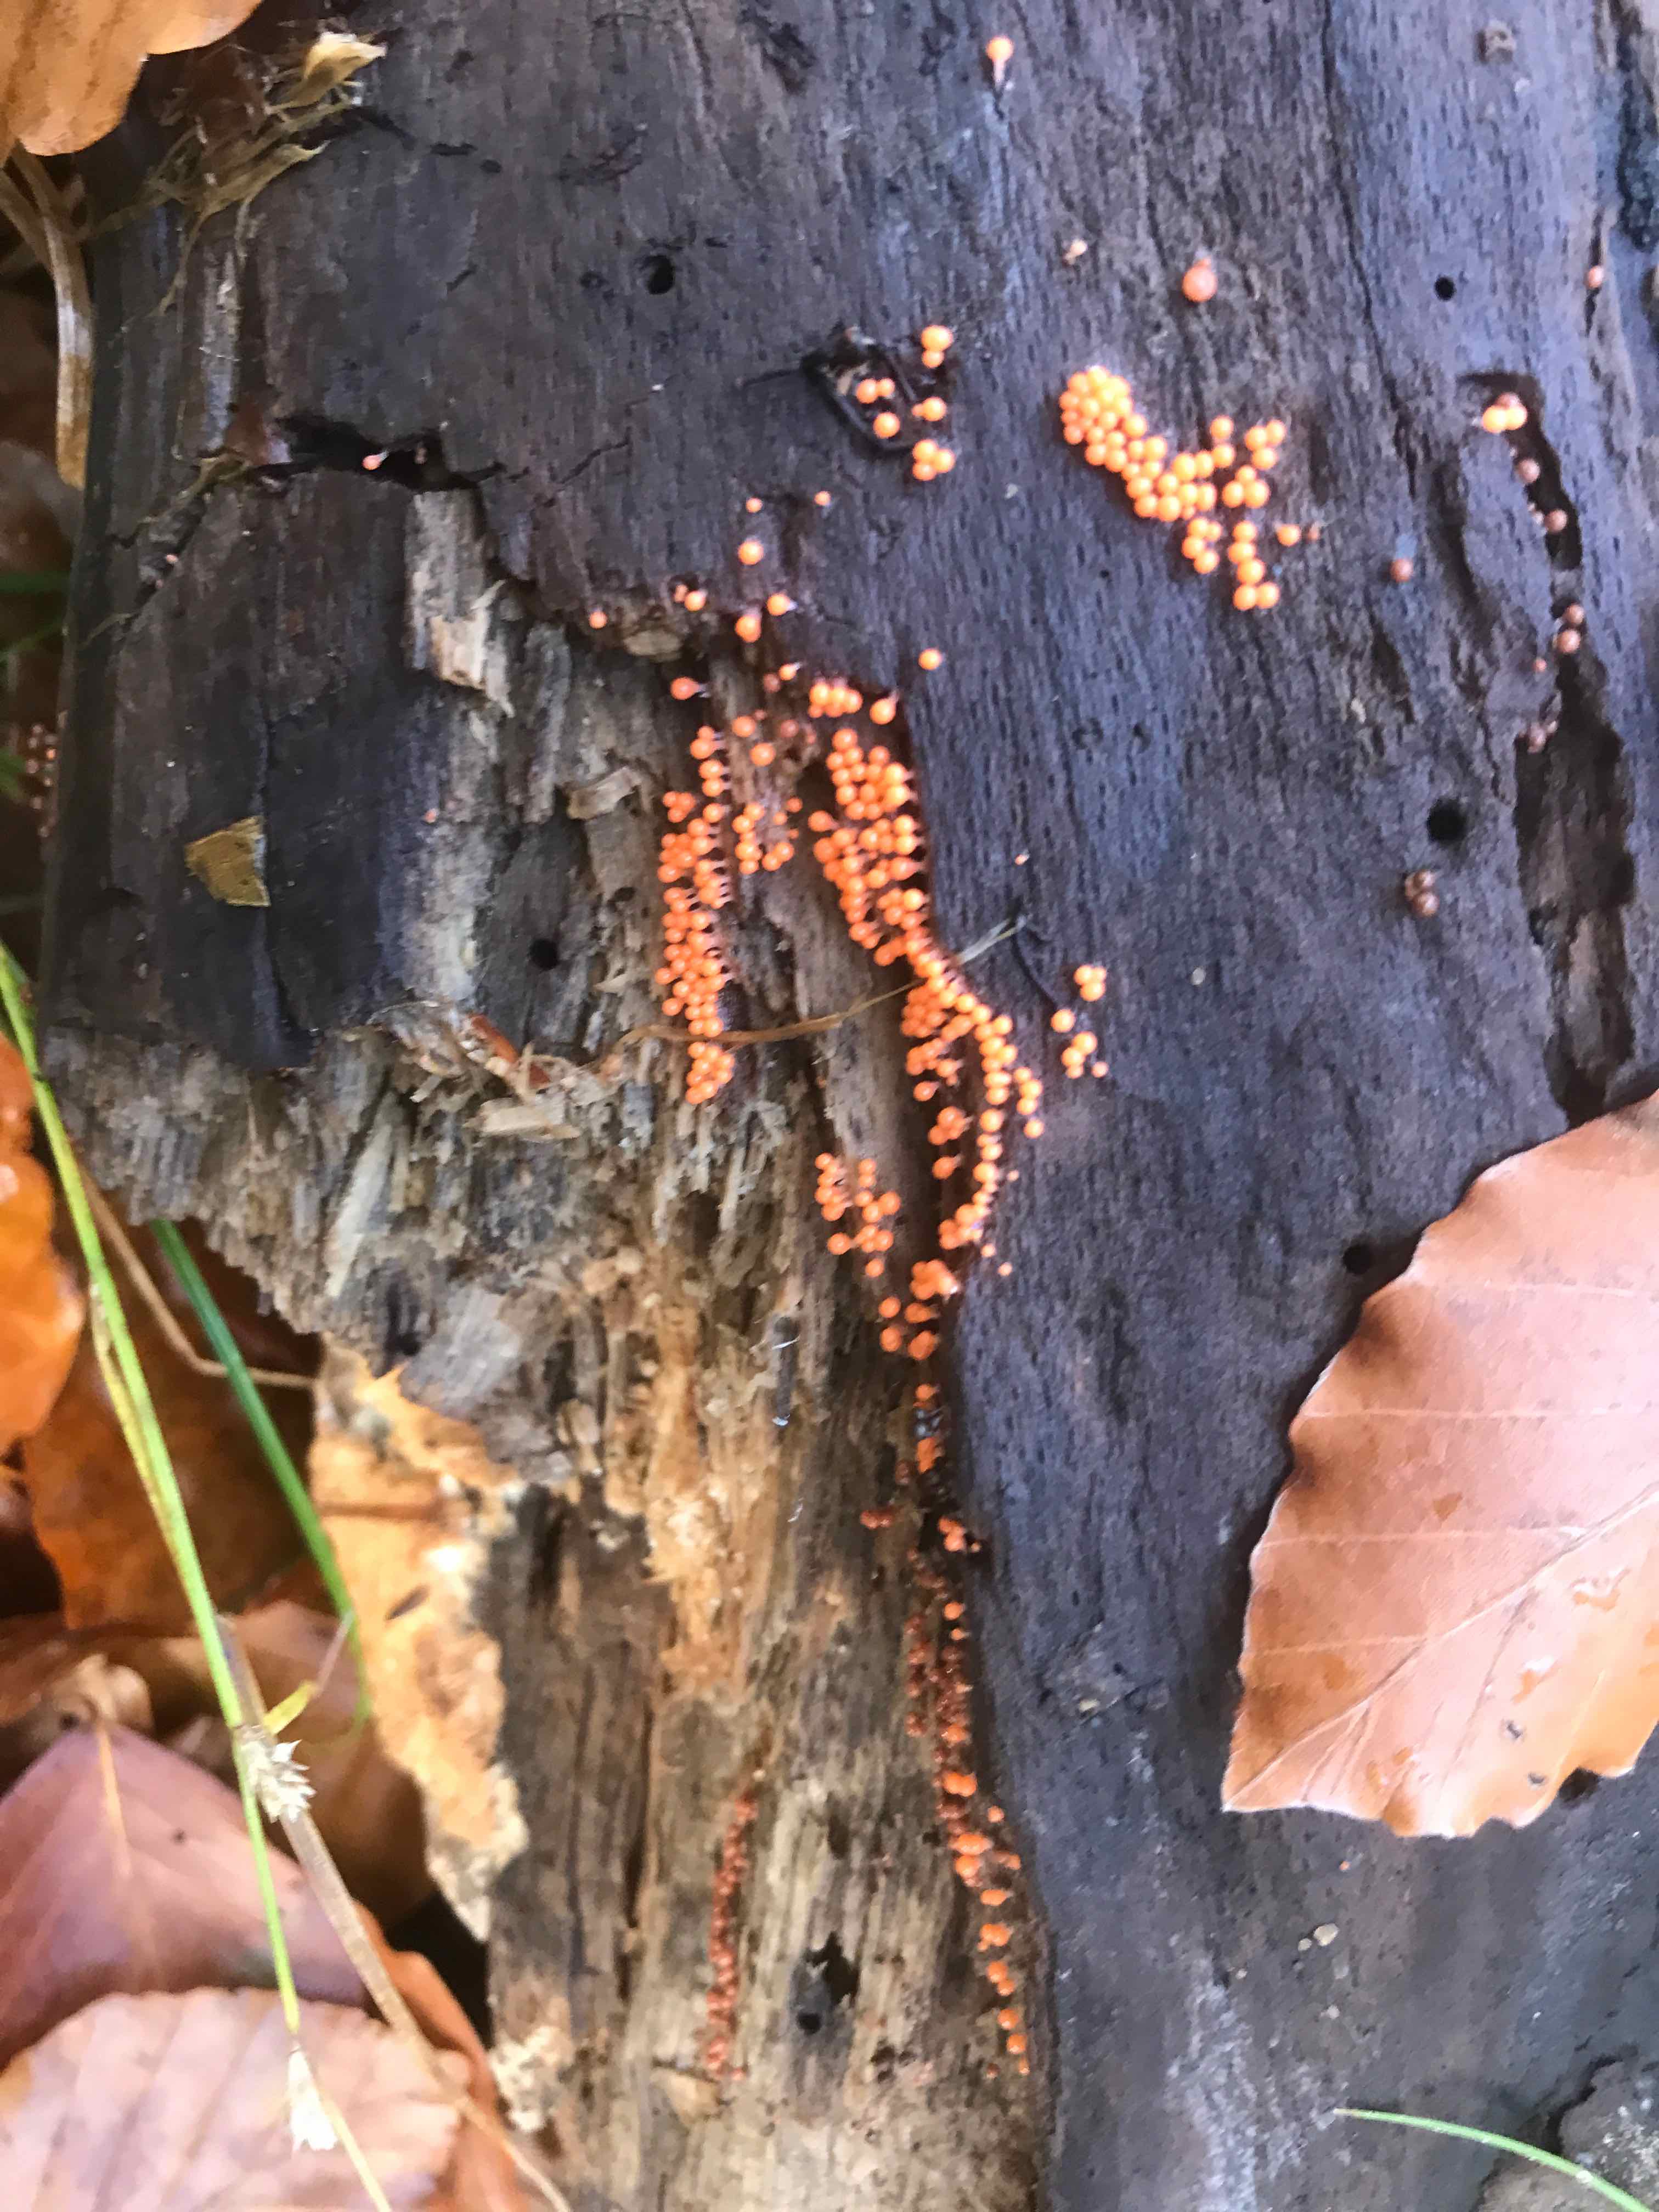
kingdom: Protozoa
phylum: Mycetozoa
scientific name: Mycetozoa
